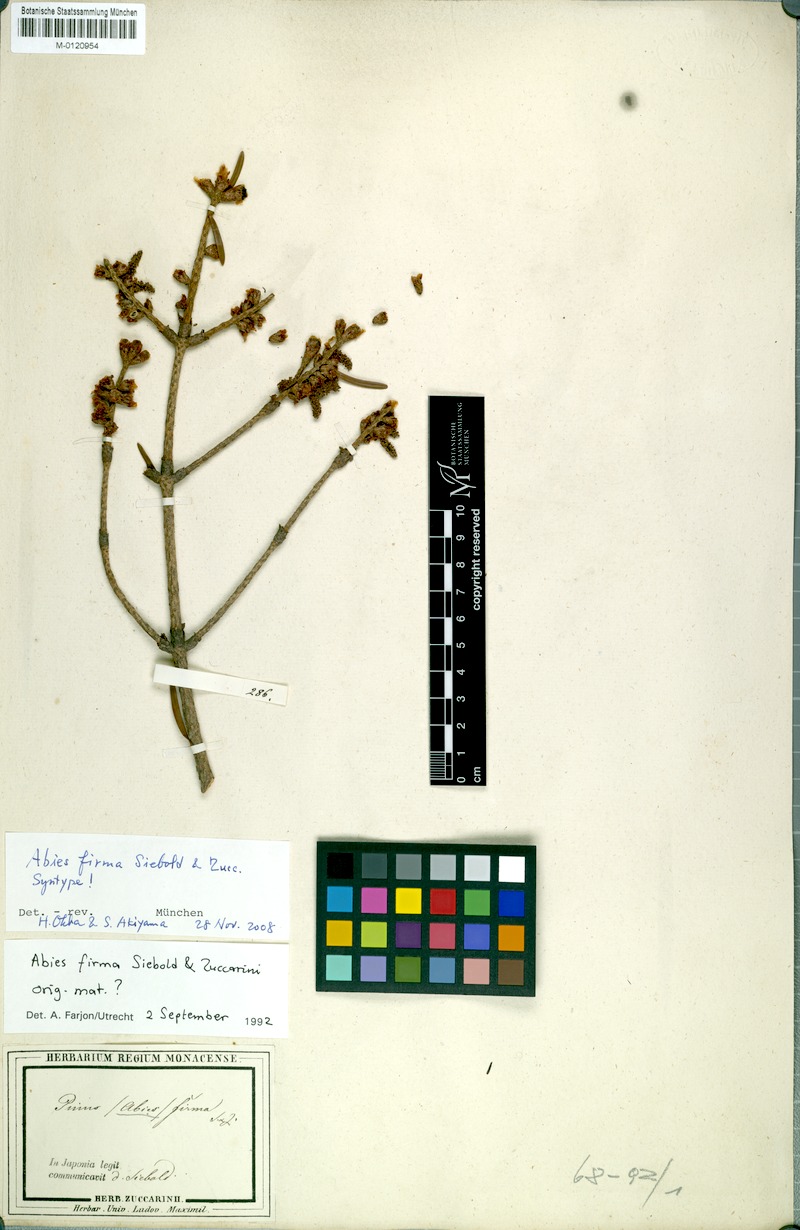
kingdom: Plantae
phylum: Tracheophyta
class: Pinopsida
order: Pinales
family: Pinaceae
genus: Abies
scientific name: Abies firma
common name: Momi fir
